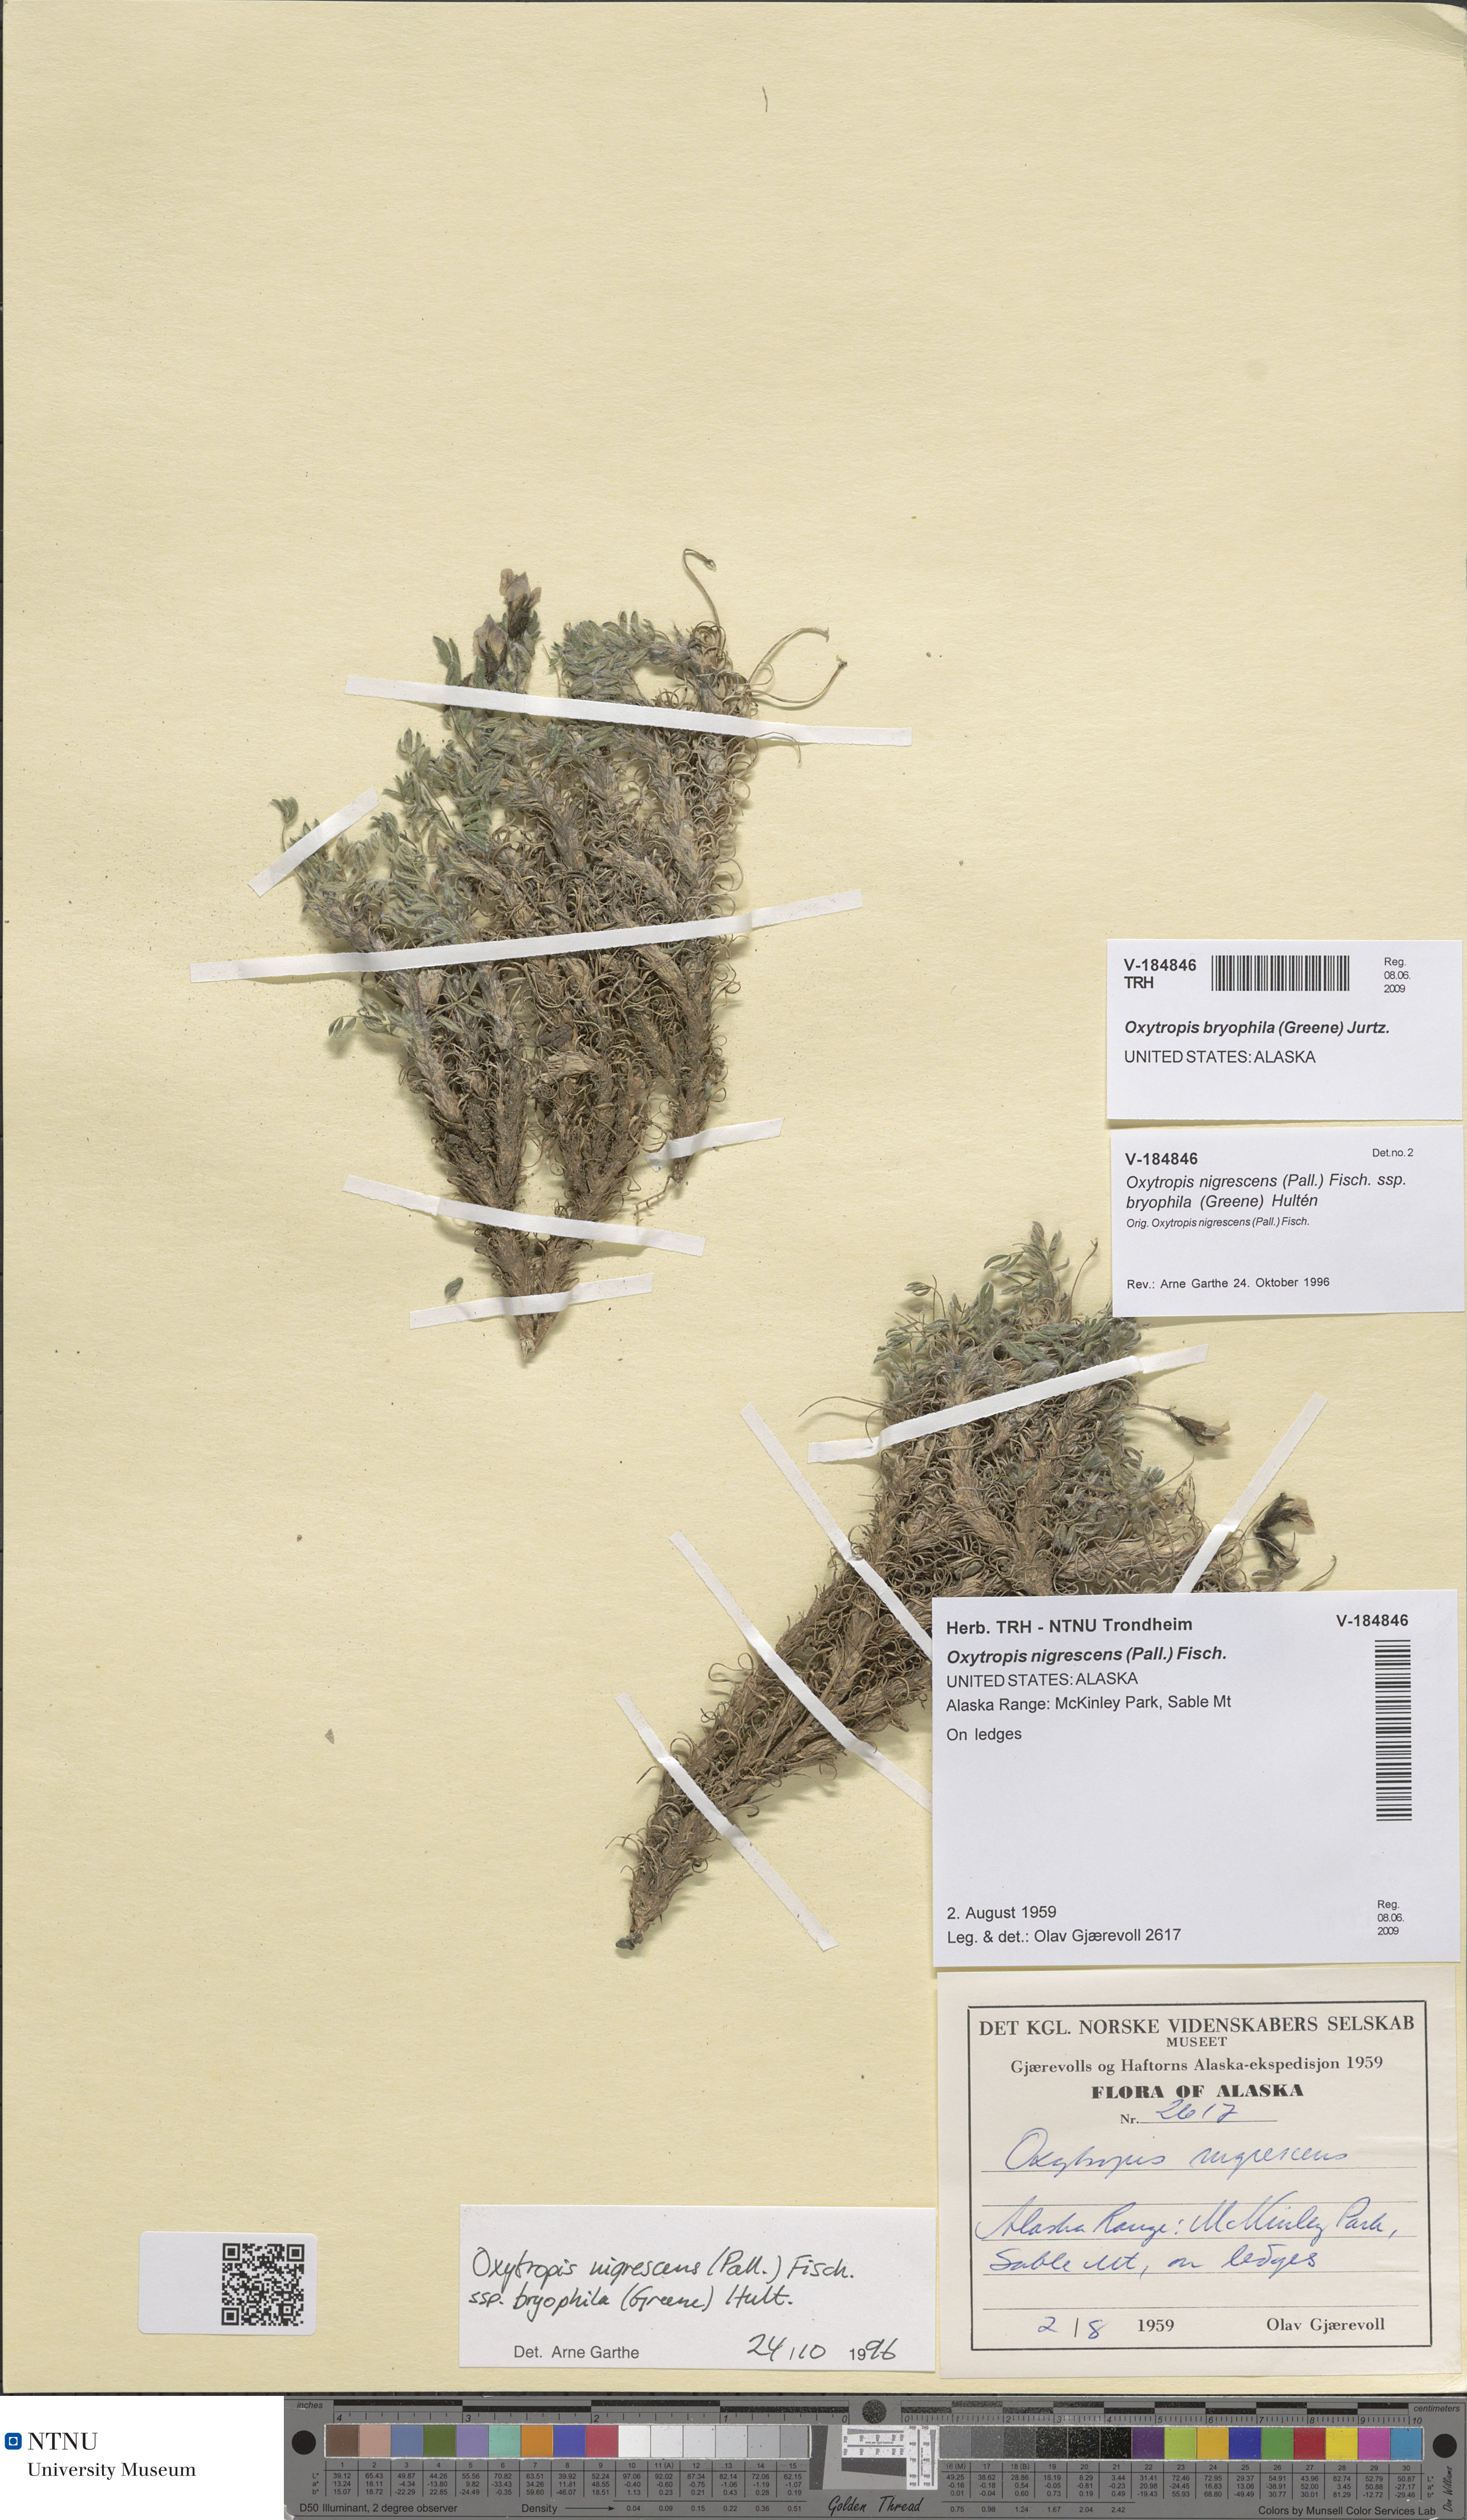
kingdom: Plantae
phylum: Tracheophyta
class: Magnoliopsida
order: Fabales
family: Fabaceae
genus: Oxytropis
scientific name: Oxytropis bryophila
